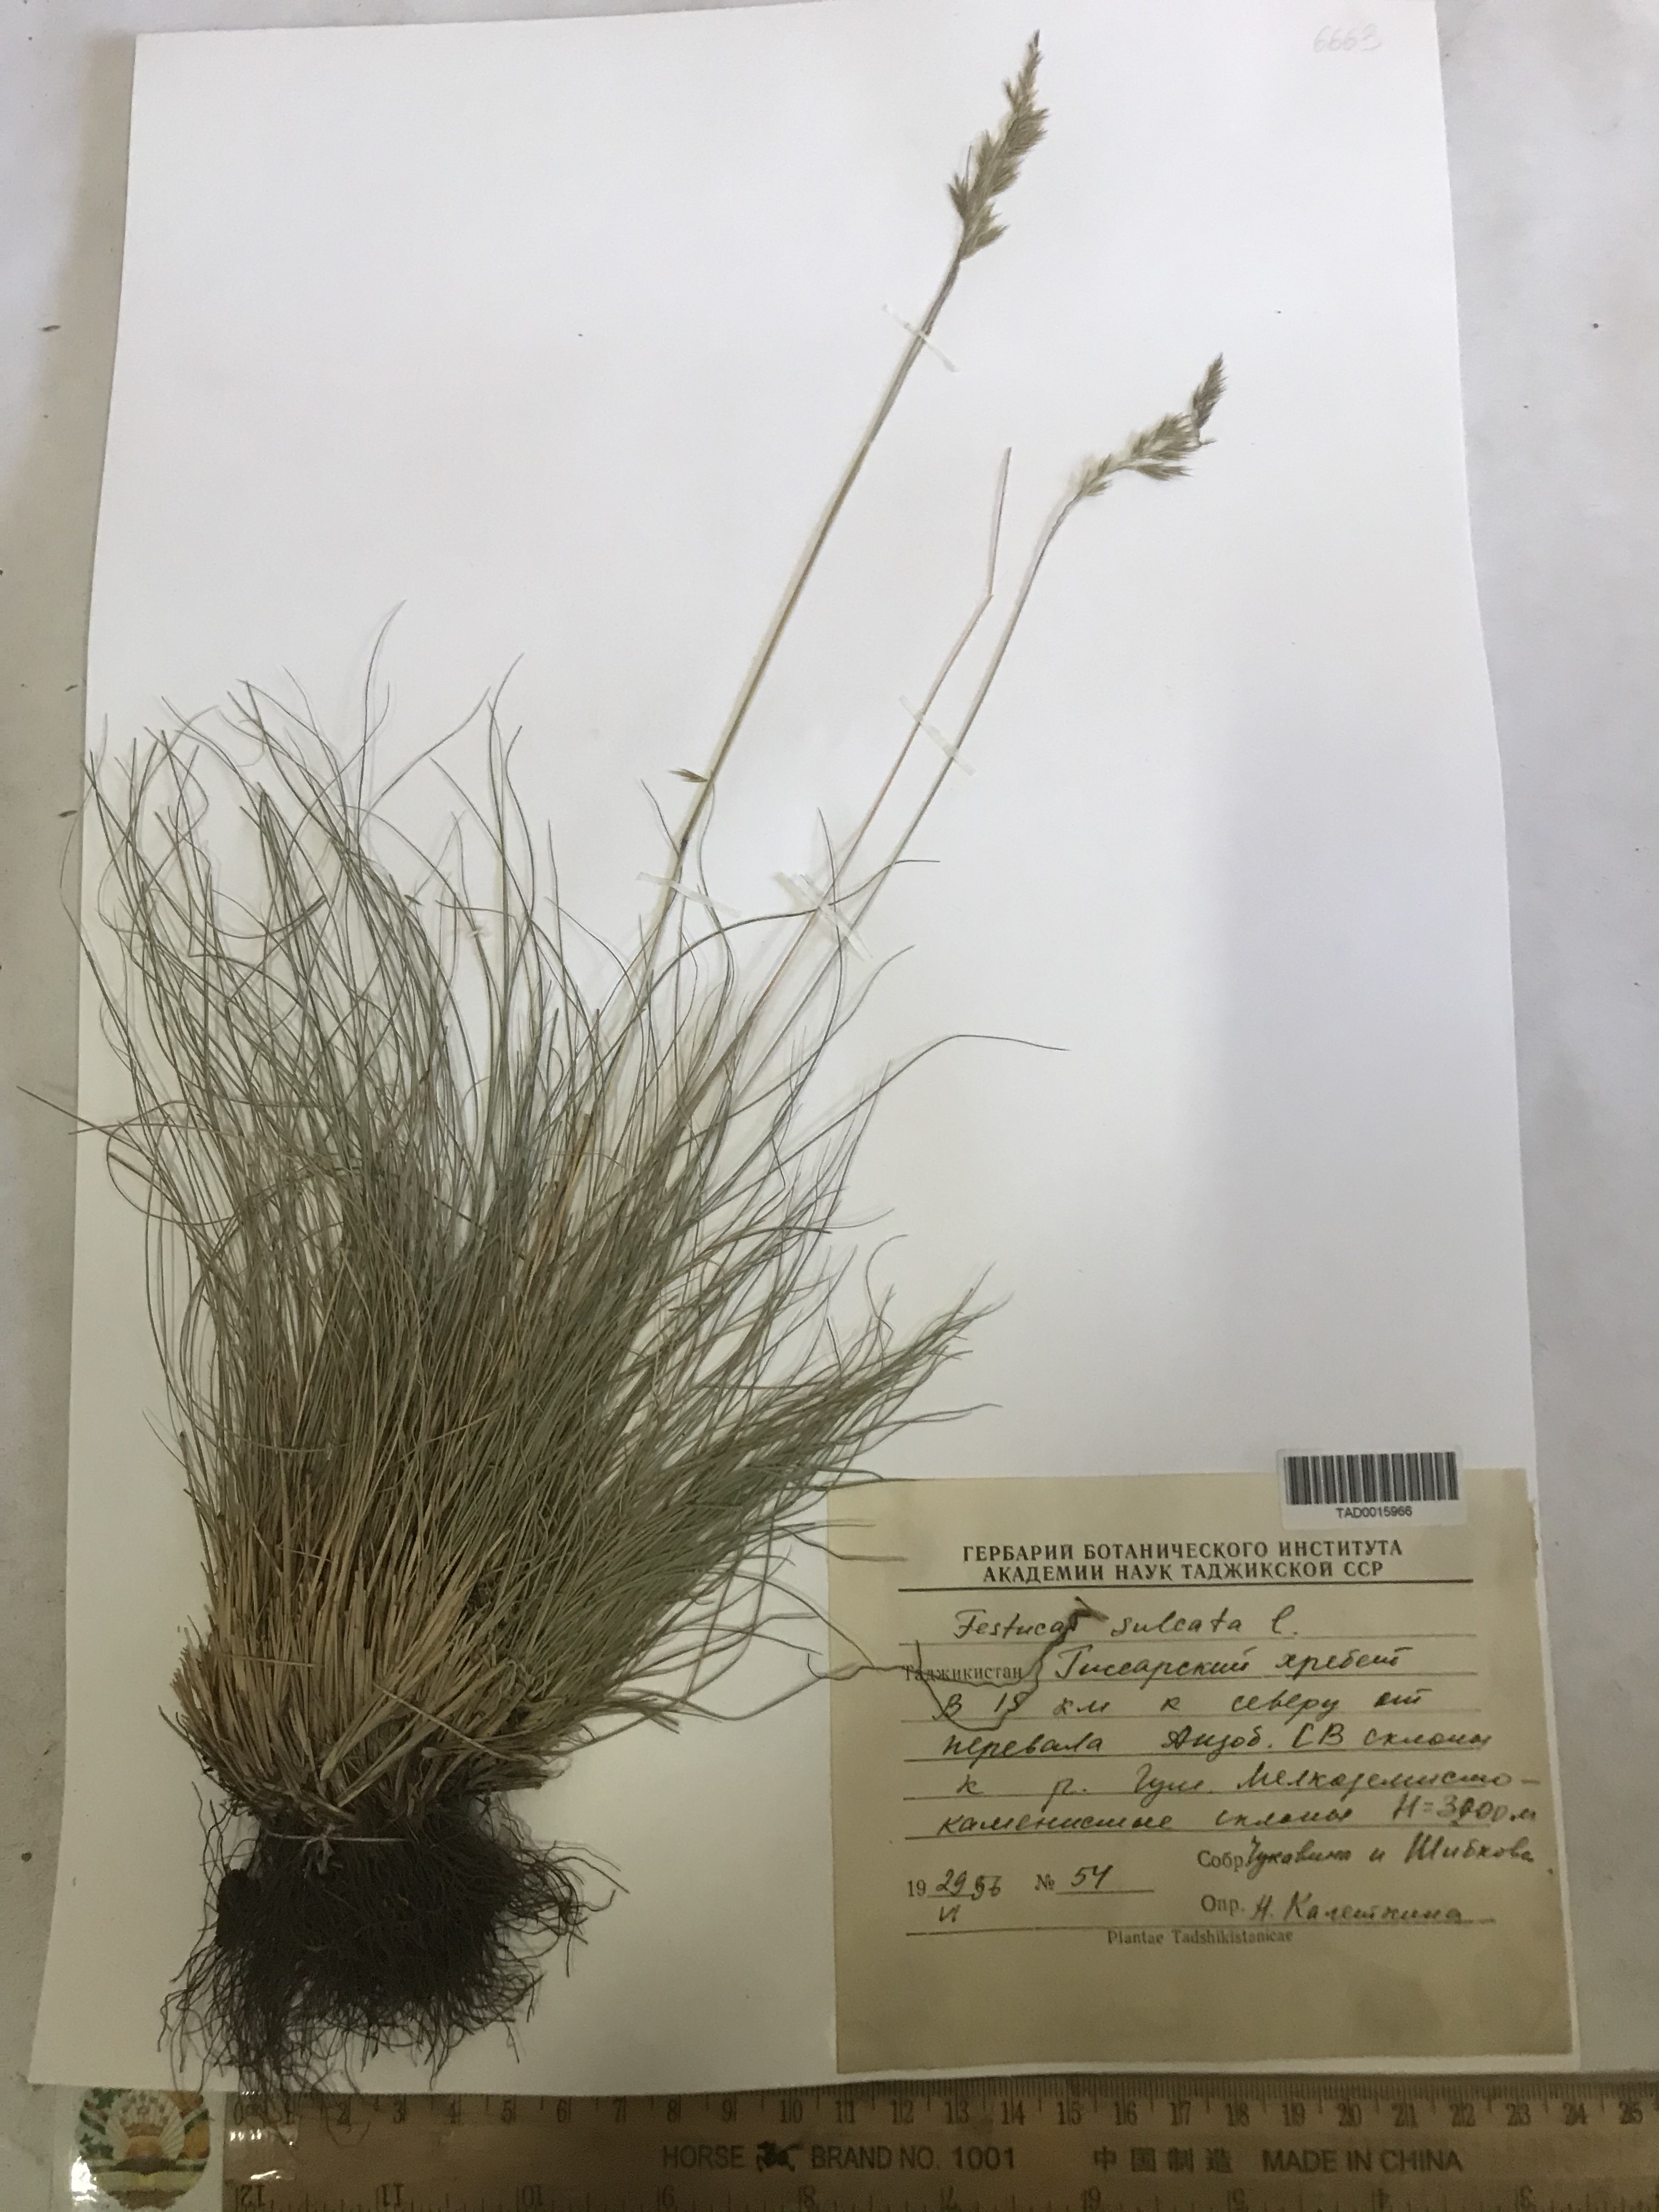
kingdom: Plantae
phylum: Tracheophyta
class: Liliopsida
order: Poales
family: Poaceae
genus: Festuca
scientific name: Festuca sulcata
